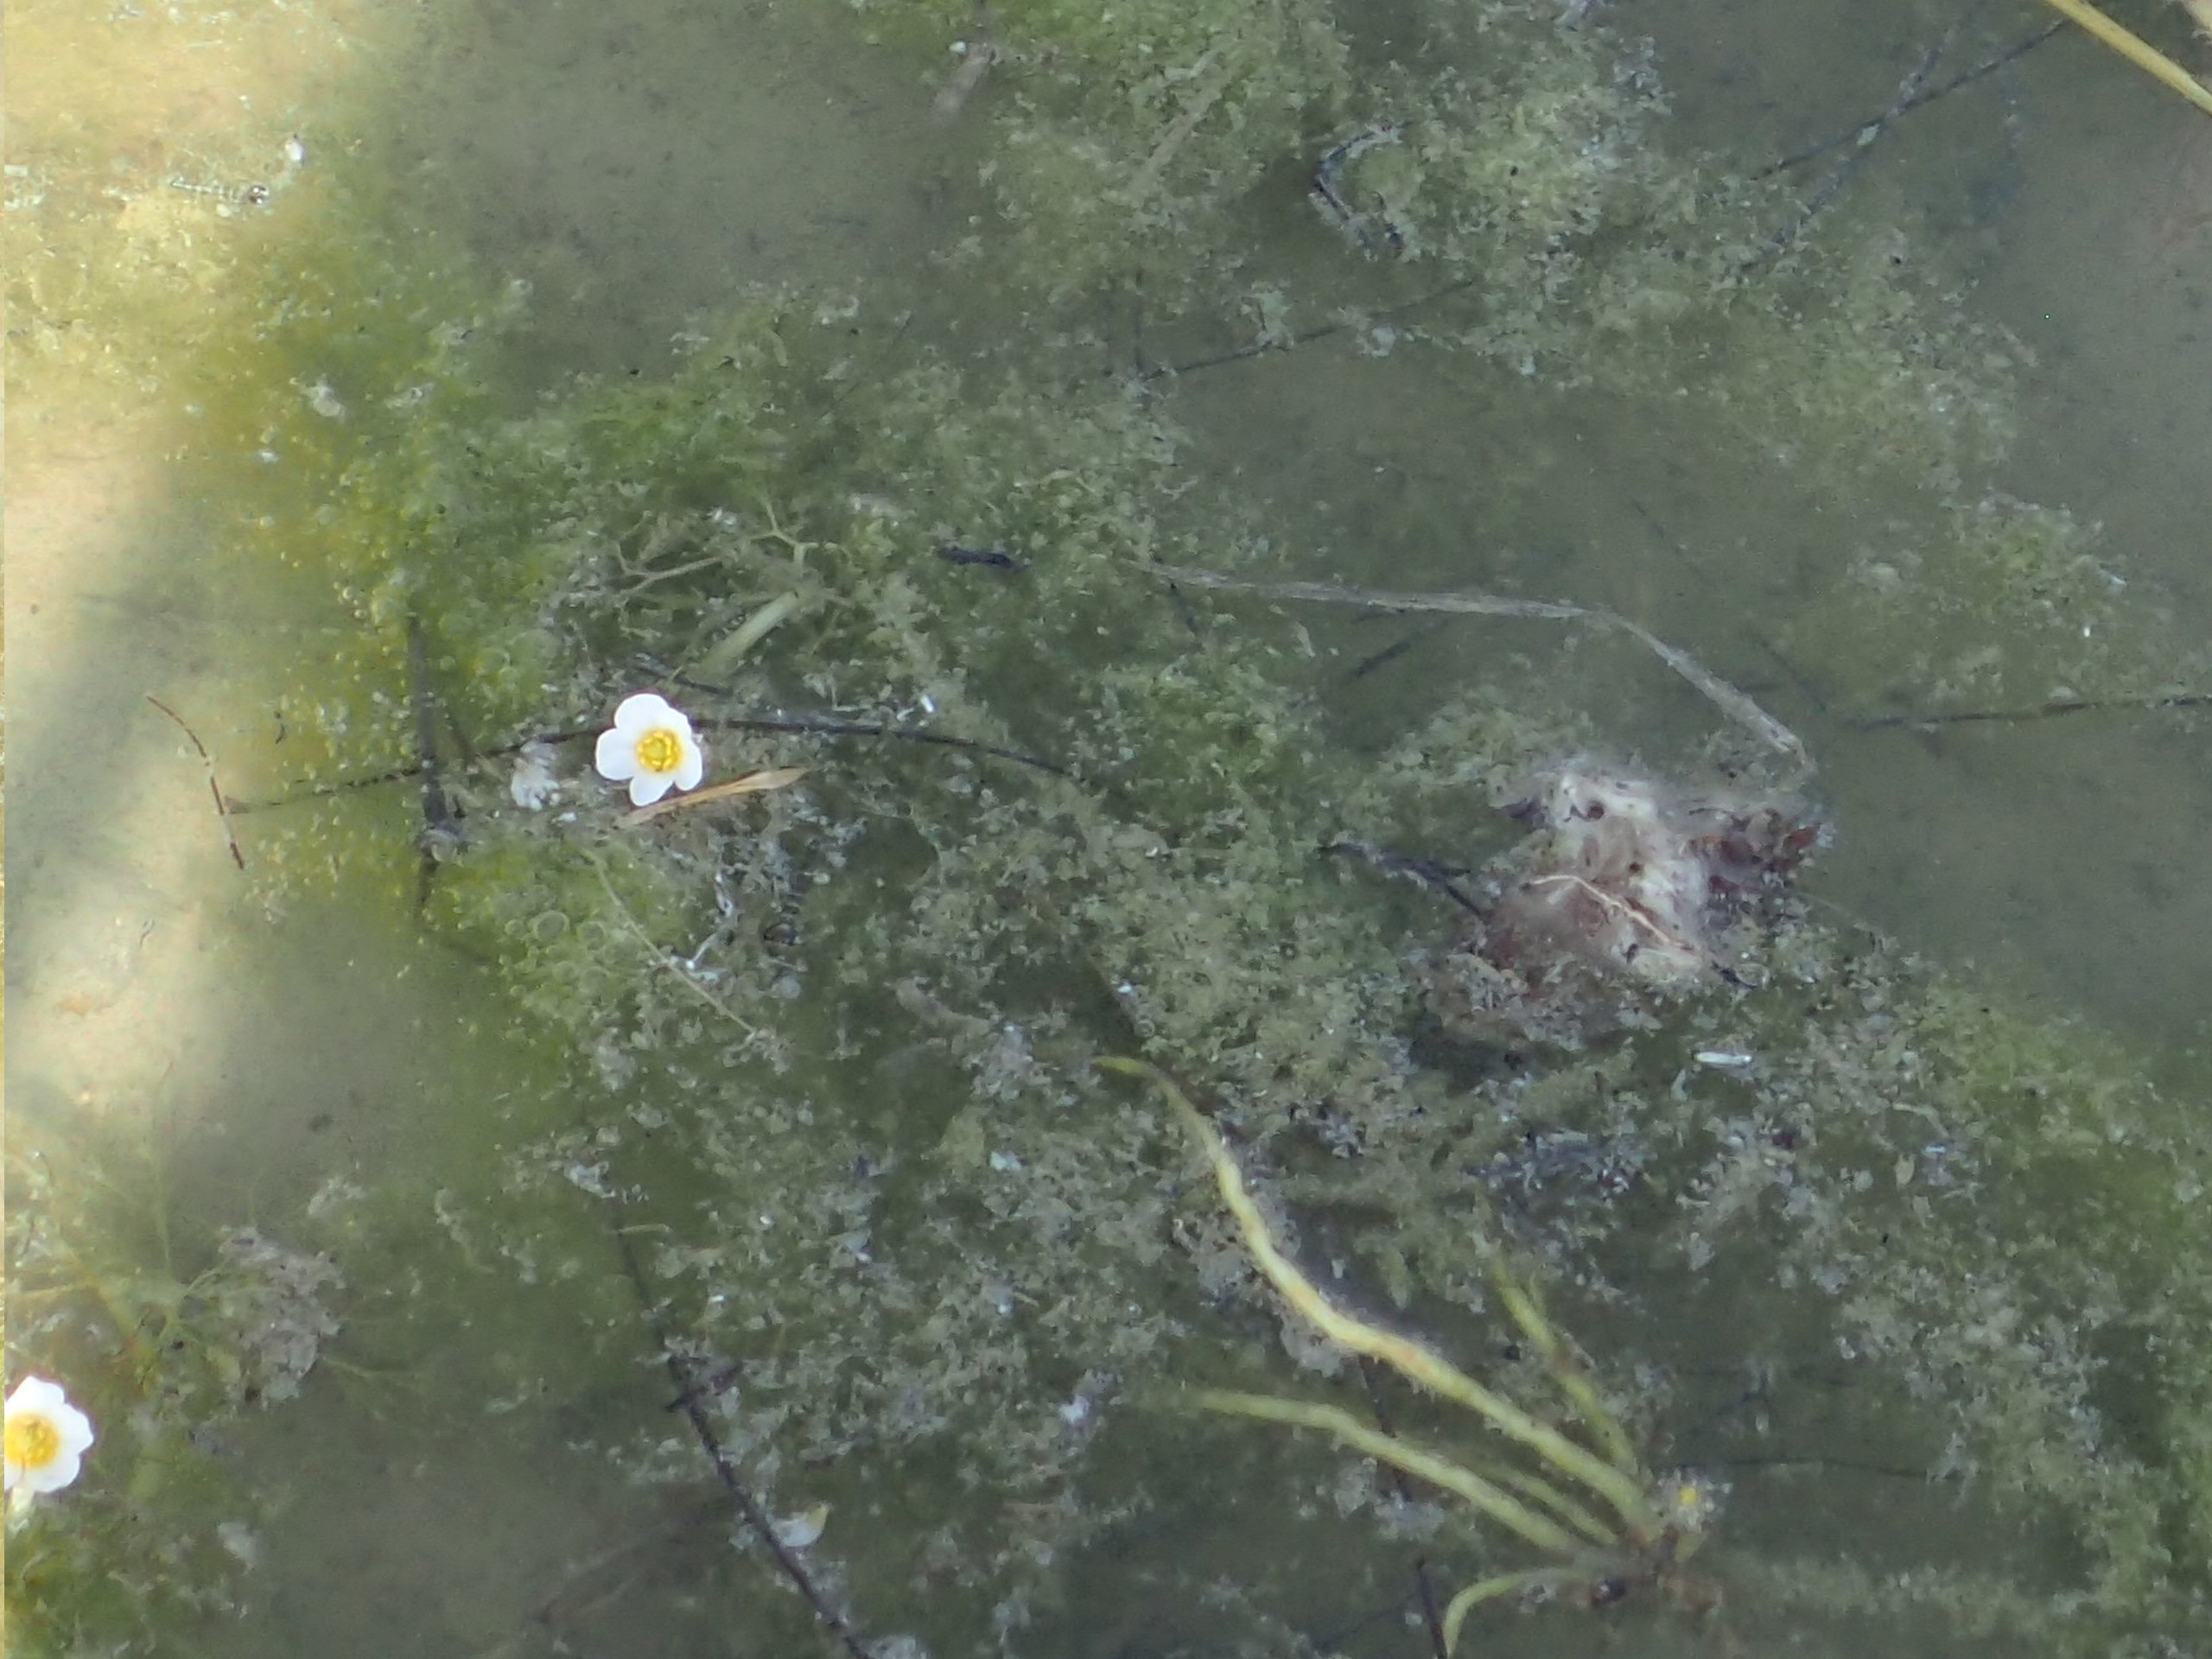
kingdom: Plantae
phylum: Tracheophyta
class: Magnoliopsida
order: Ranunculales
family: Ranunculaceae
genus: Ranunculus
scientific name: Ranunculus aquatilis
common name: Almindelig vandranunkel
